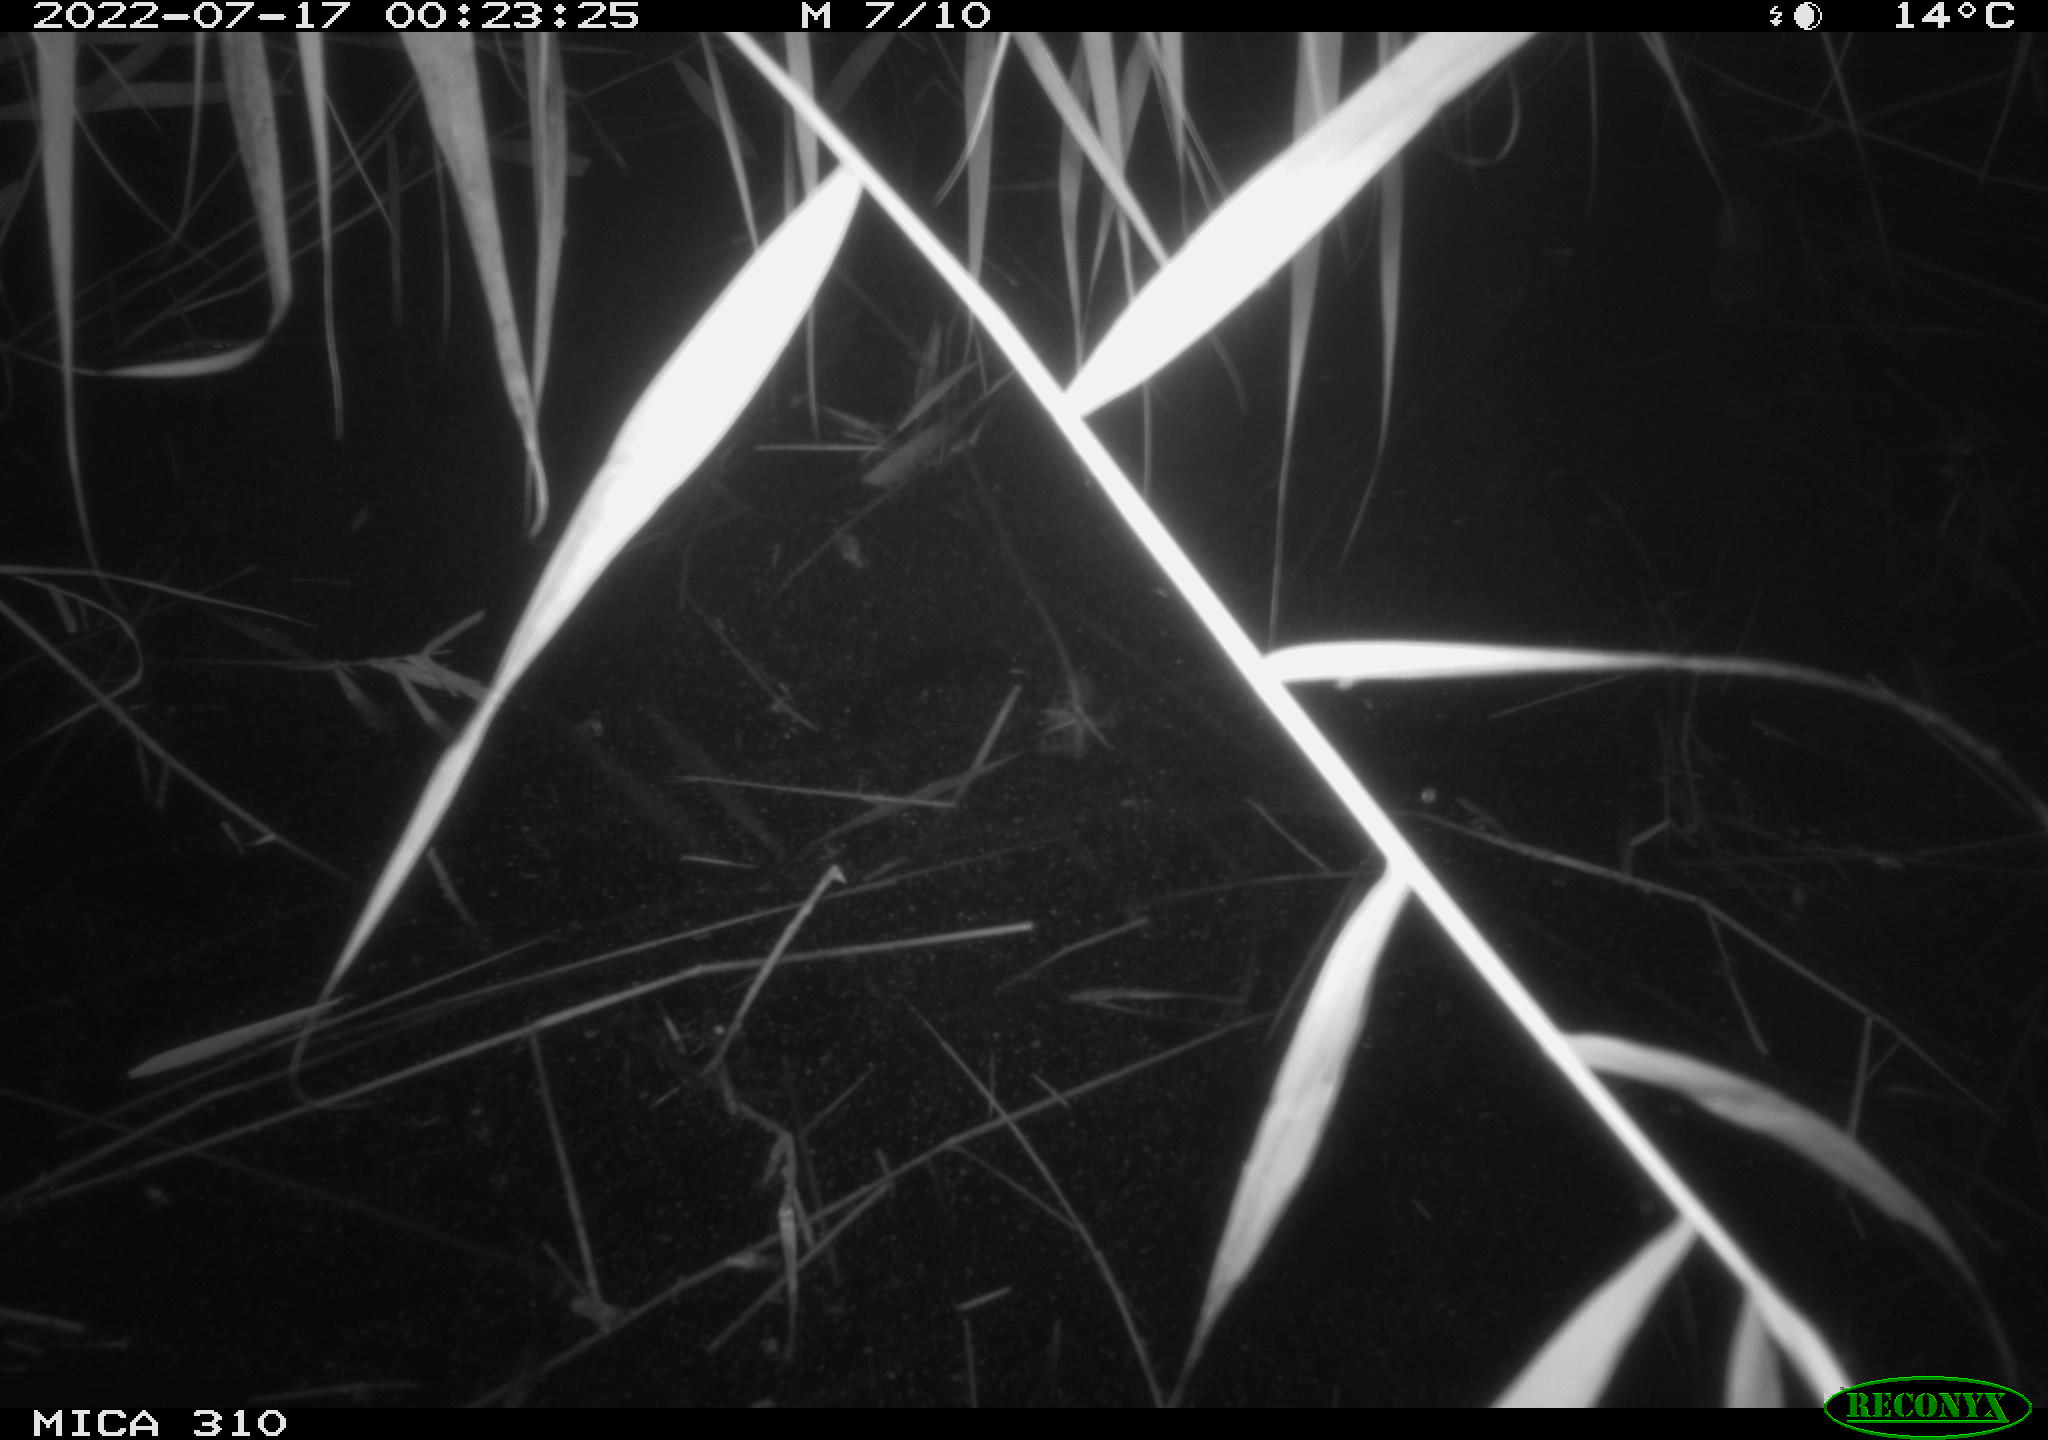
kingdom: Animalia
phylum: Chordata
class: Mammalia
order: Rodentia
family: Muridae
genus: Rattus
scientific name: Rattus norvegicus
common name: Brown rat
